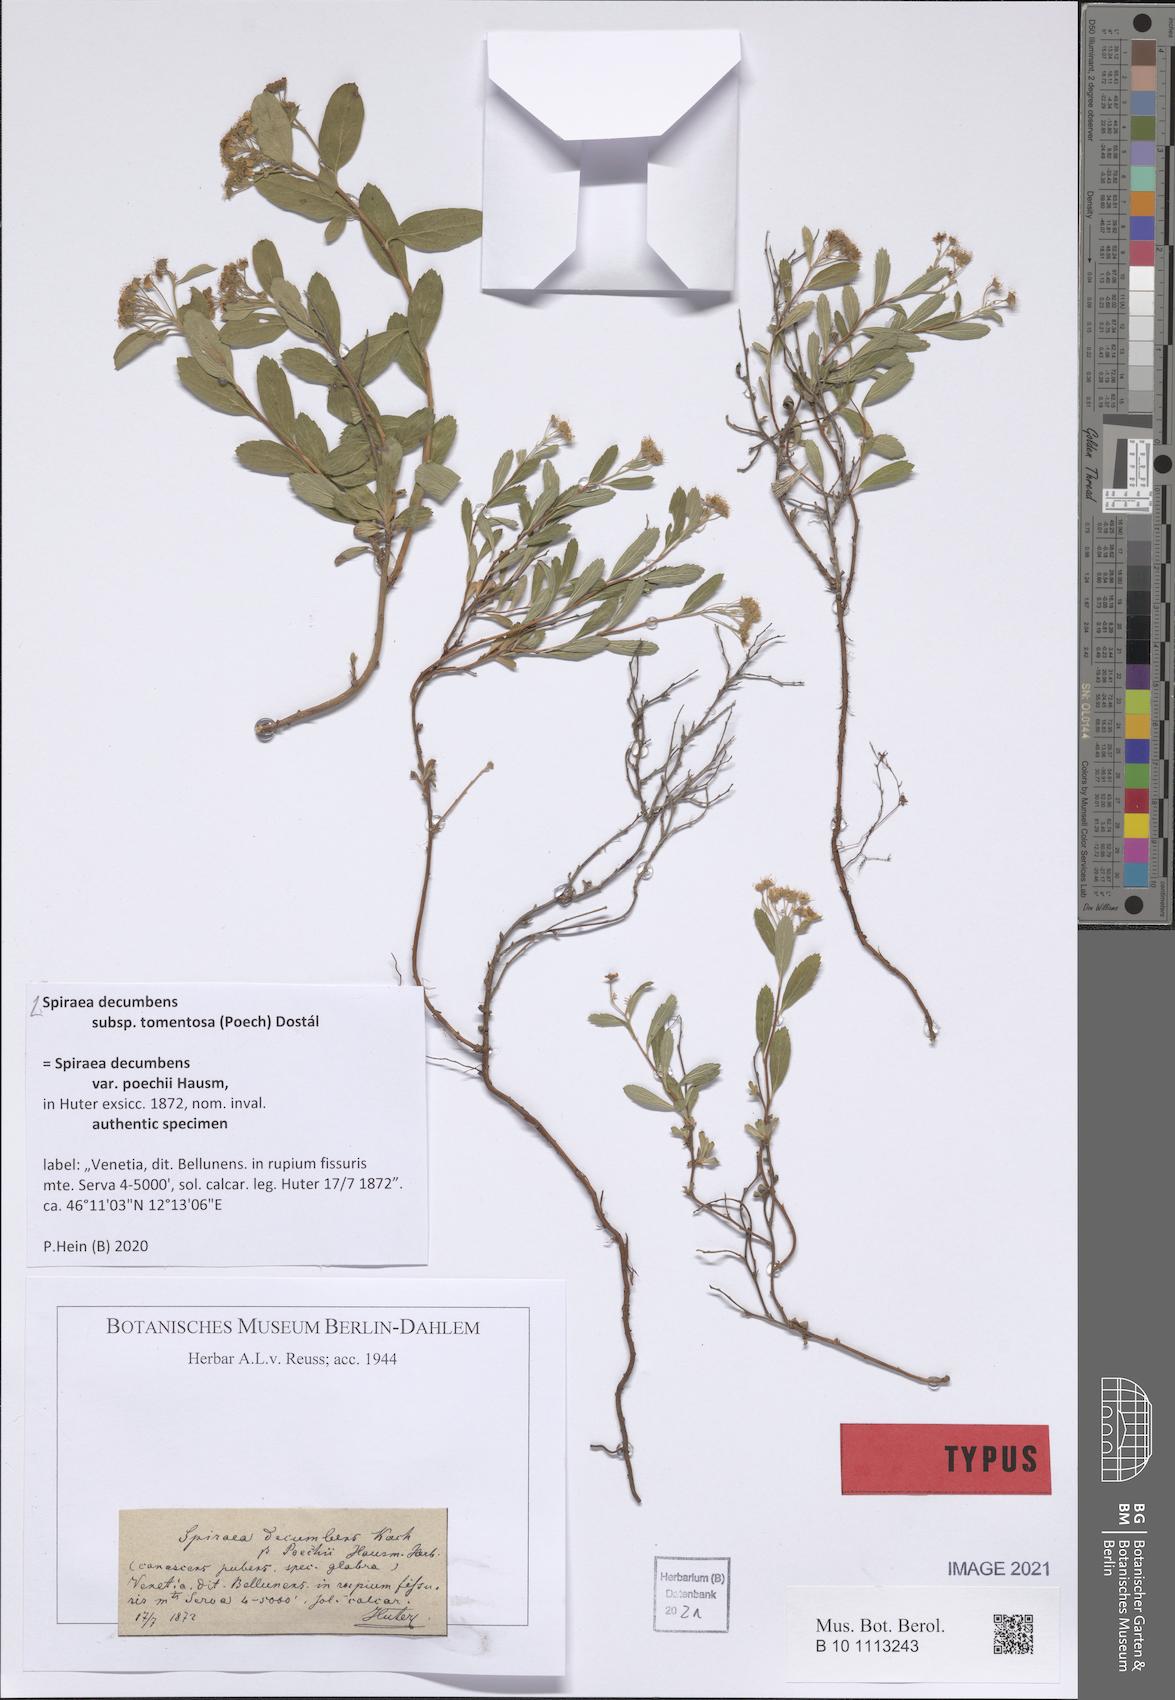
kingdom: Plantae
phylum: Tracheophyta
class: Magnoliopsida
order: Rosales
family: Rosaceae
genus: Spiraea
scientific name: Spiraea decumbens
